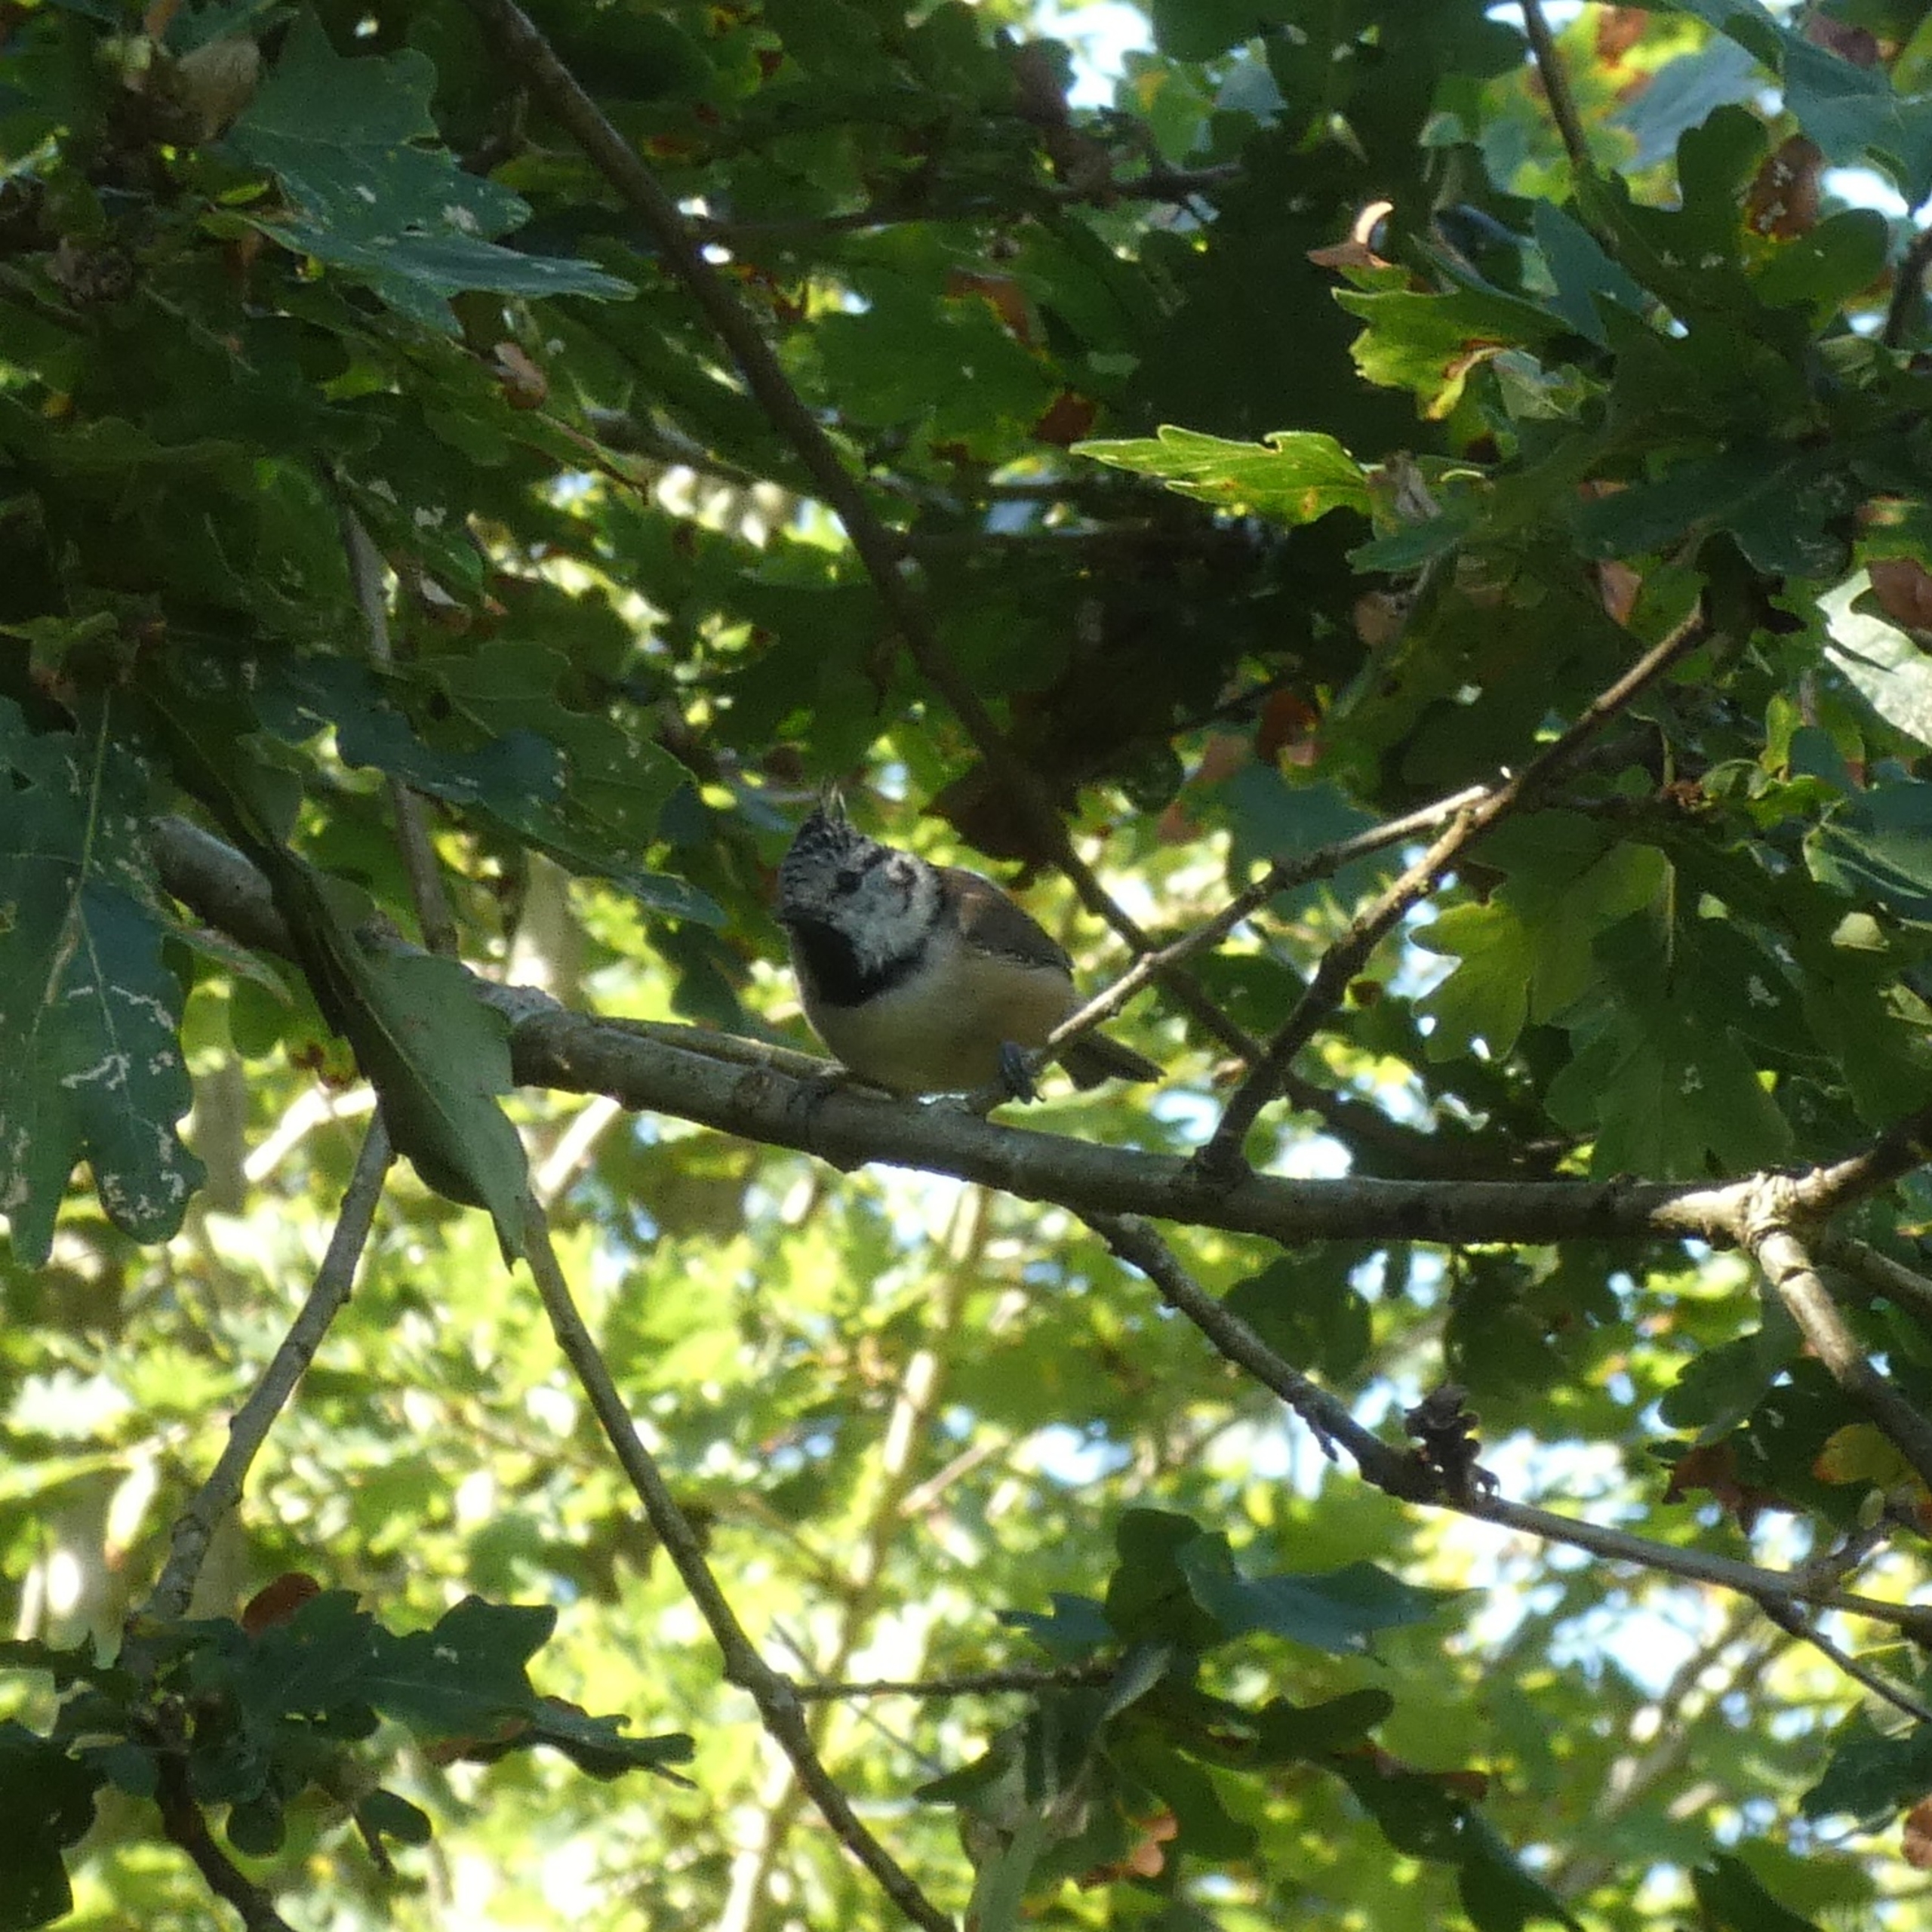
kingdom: Animalia
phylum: Chordata
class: Aves
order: Passeriformes
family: Paridae
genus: Lophophanes
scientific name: Lophophanes cristatus
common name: Topmejse
